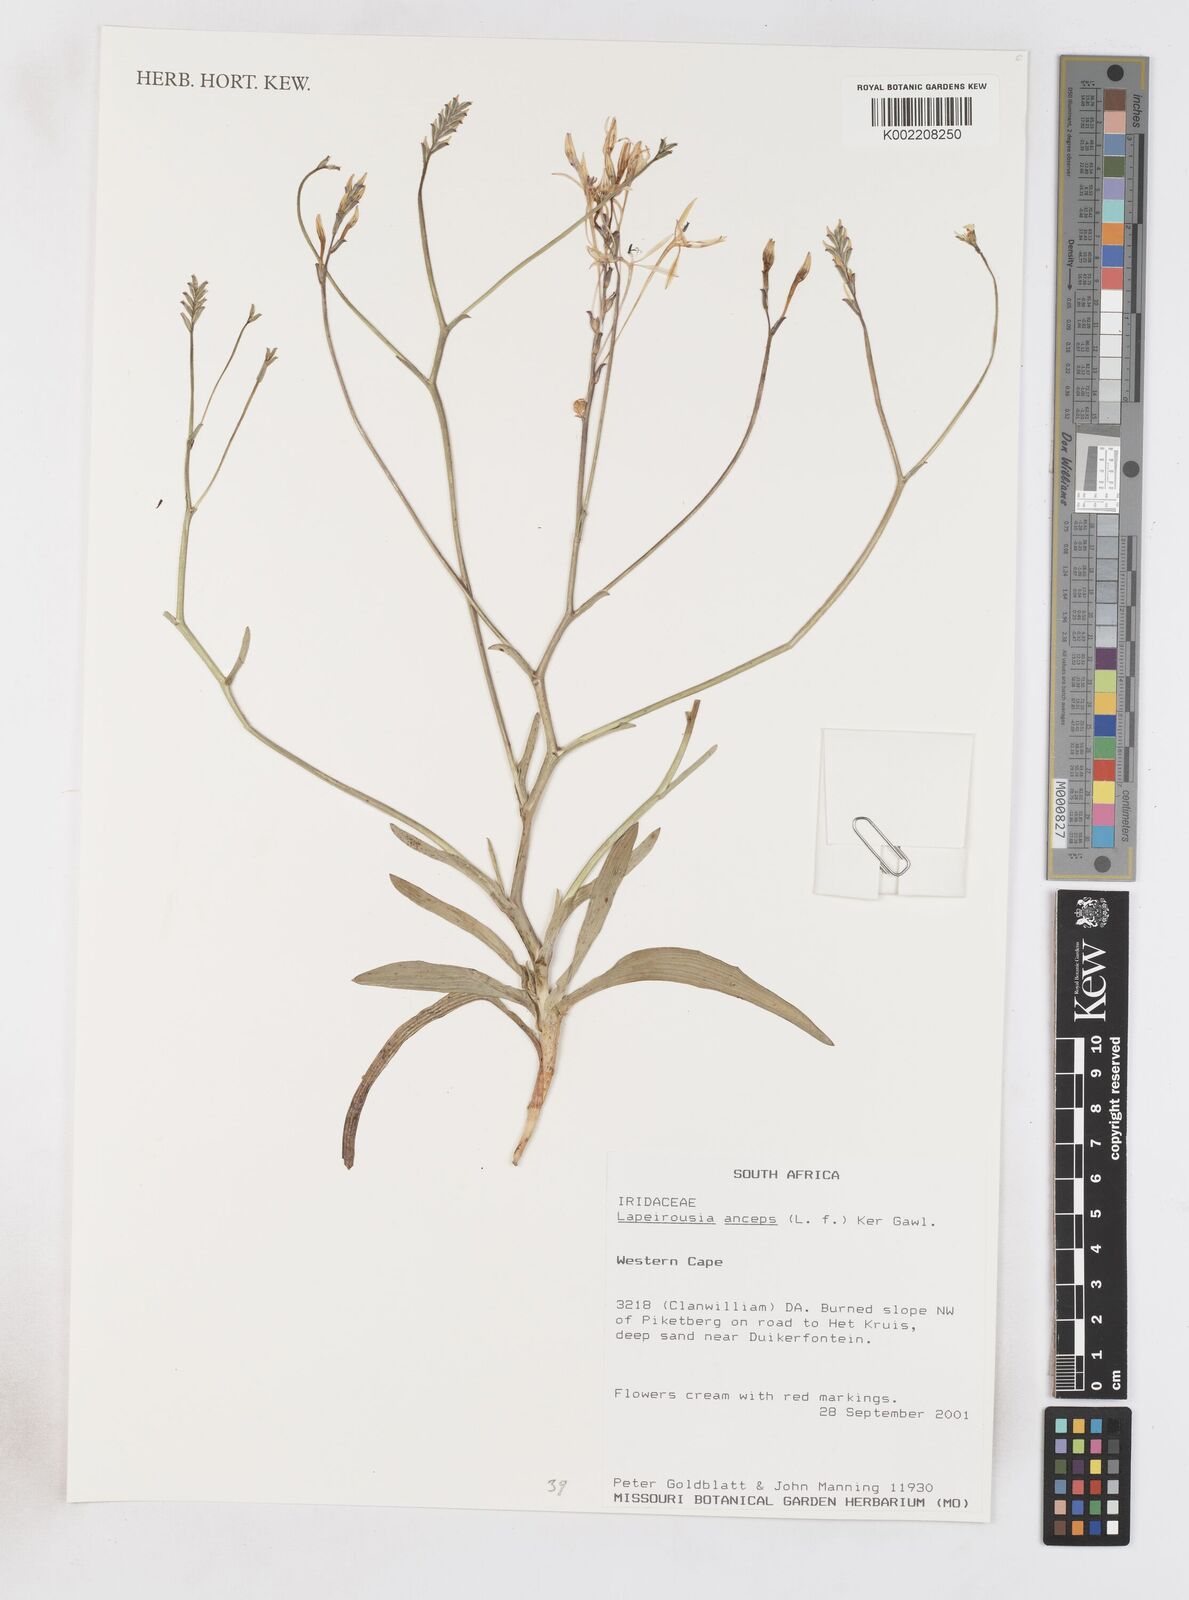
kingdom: Plantae
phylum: Tracheophyta
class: Liliopsida
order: Asparagales
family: Iridaceae
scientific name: Iridaceae
